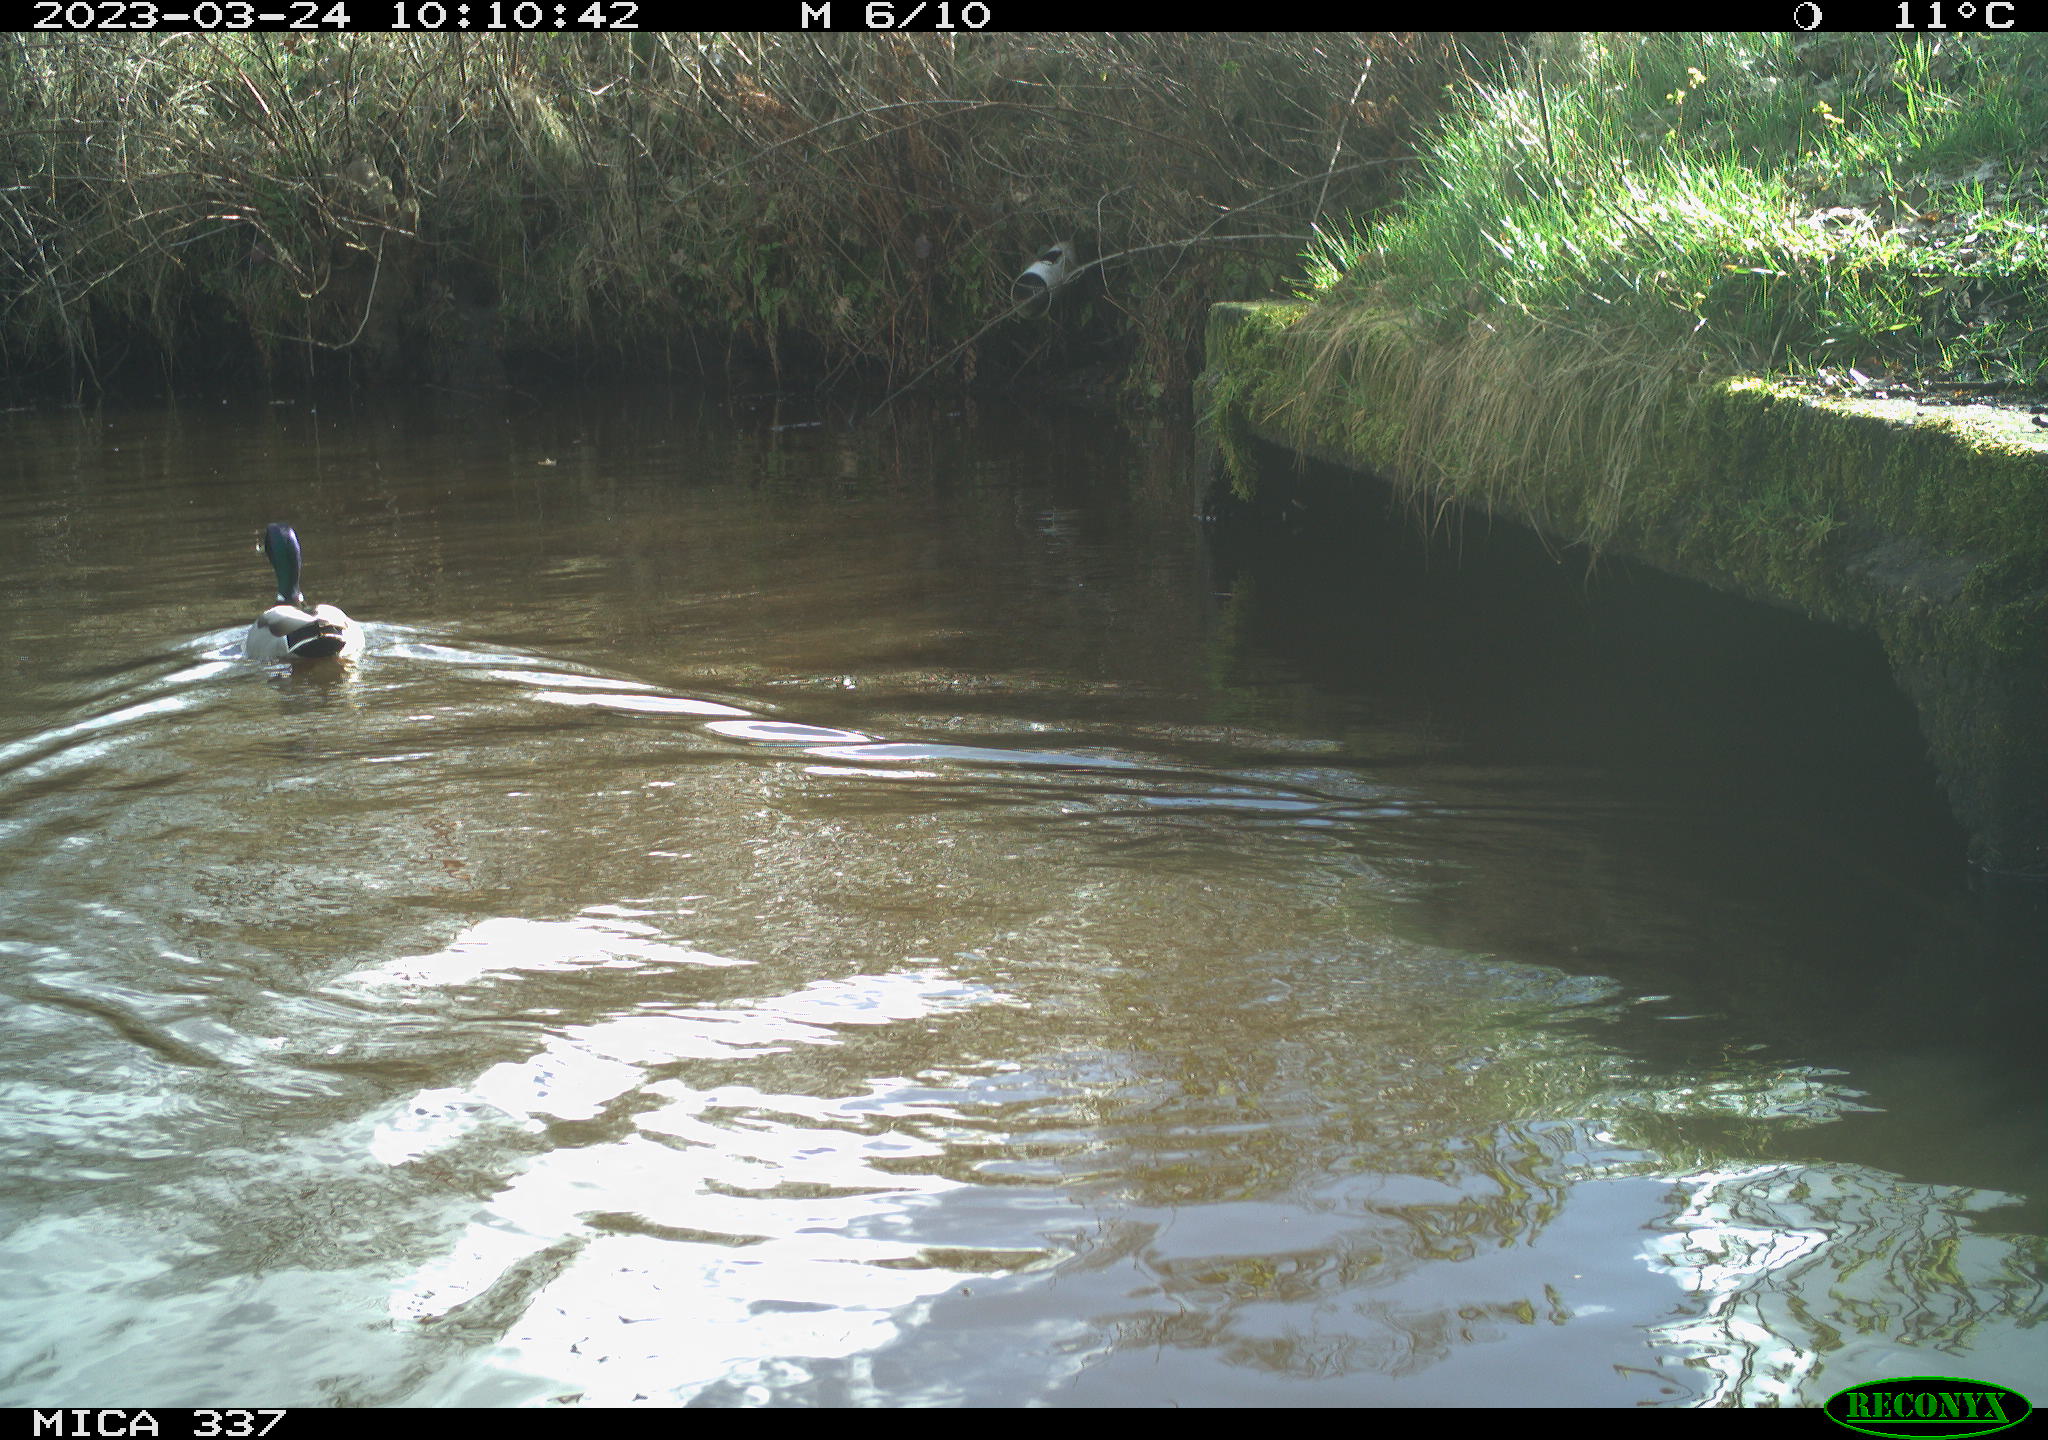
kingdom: Animalia
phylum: Chordata
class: Aves
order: Anseriformes
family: Anatidae
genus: Anas
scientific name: Anas
